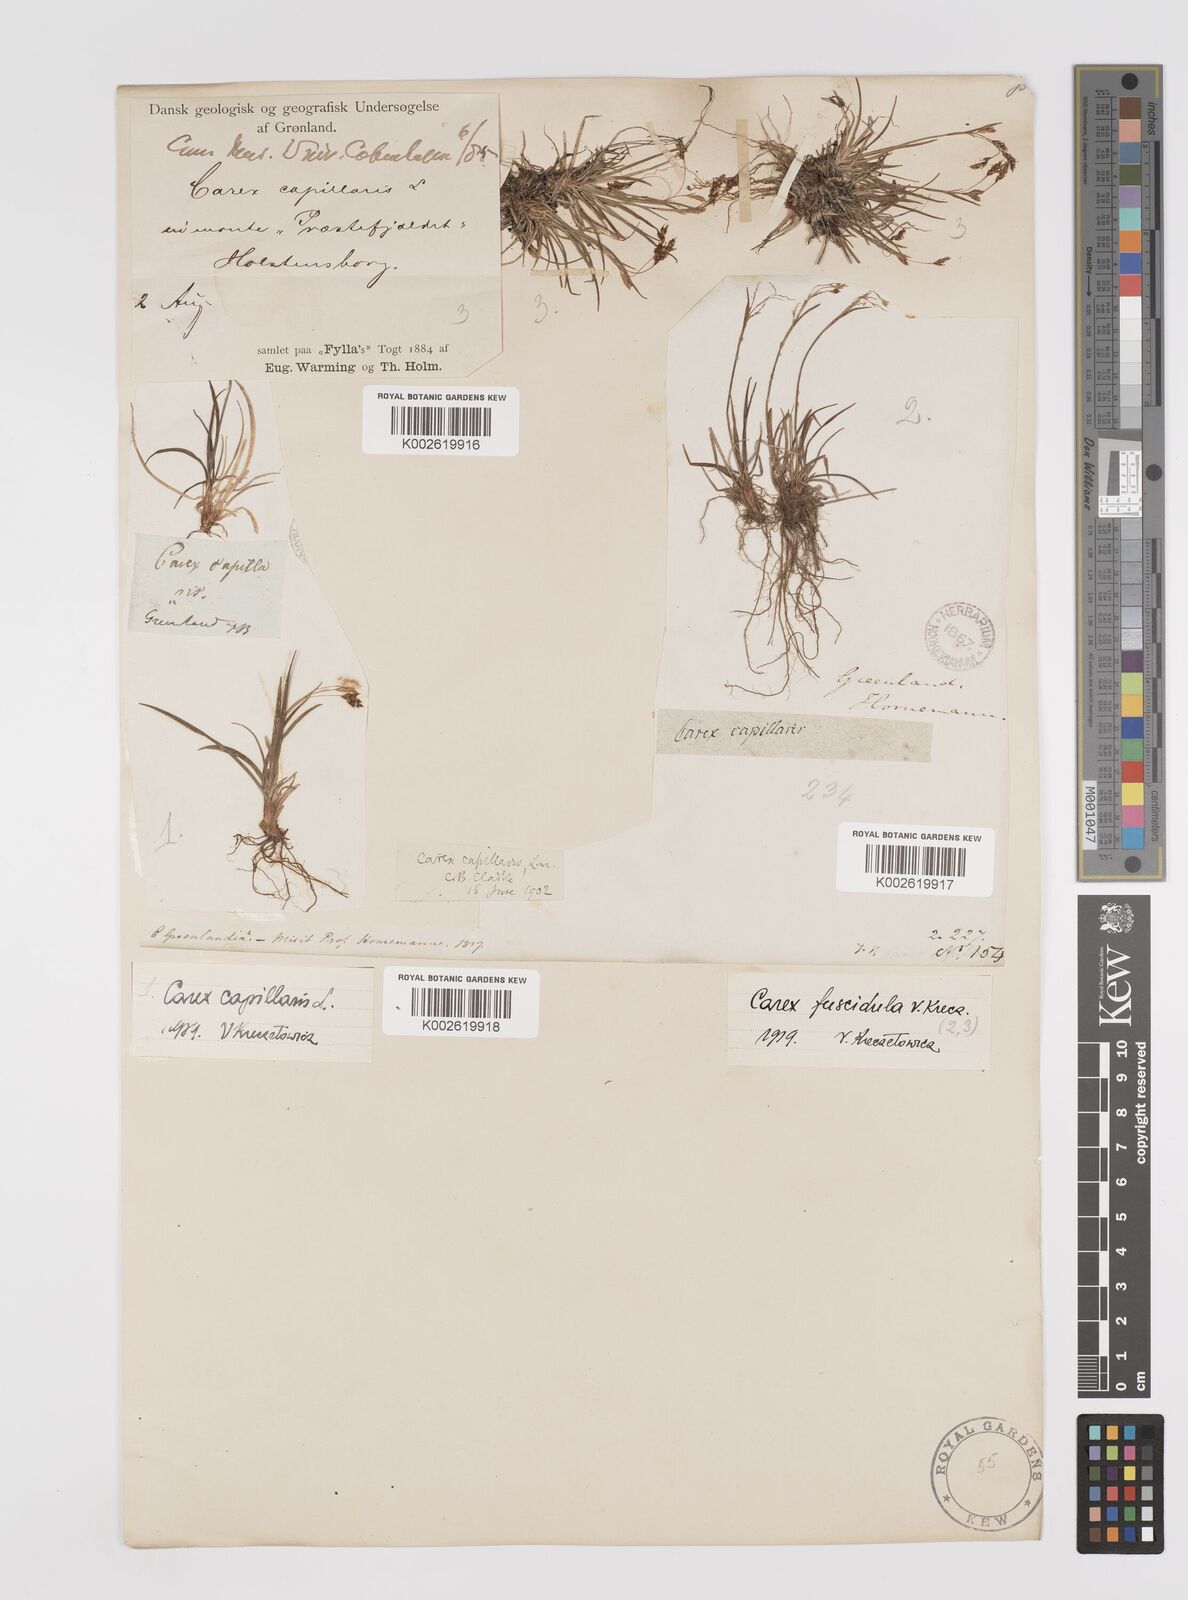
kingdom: Plantae
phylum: Tracheophyta
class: Liliopsida
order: Poales
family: Cyperaceae
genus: Carex
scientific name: Carex capillaris
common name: Hair sedge
